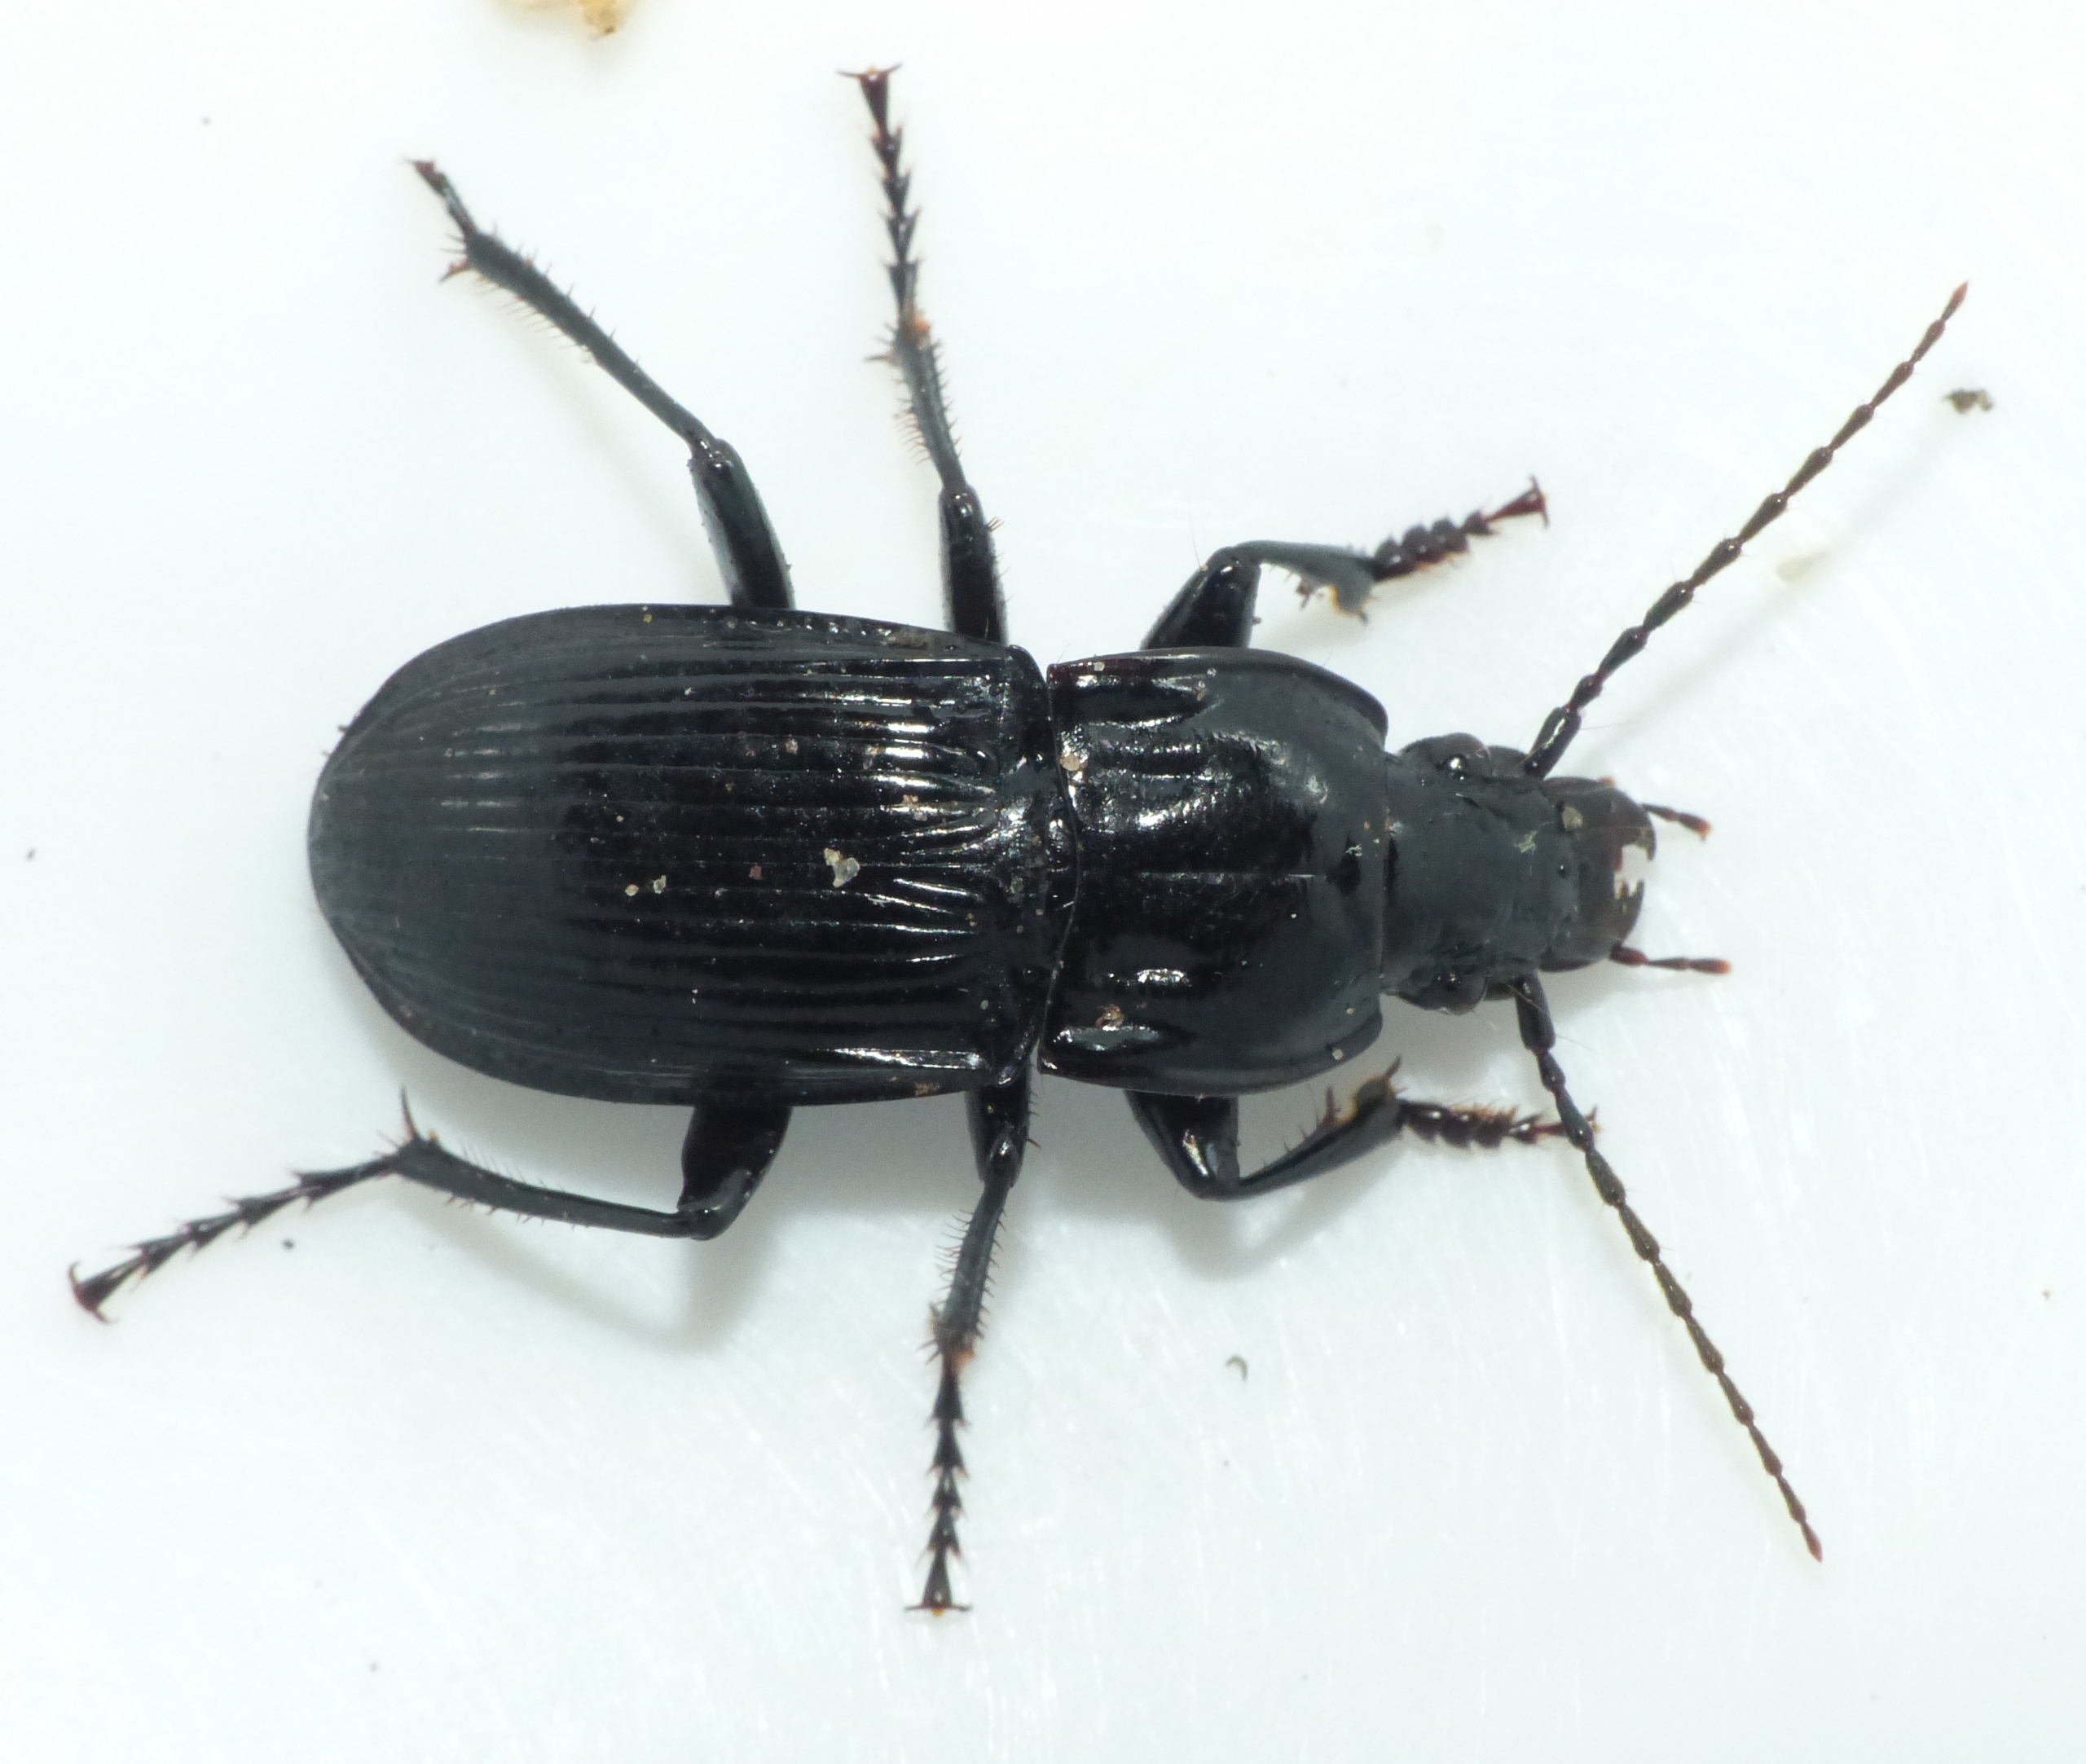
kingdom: Animalia
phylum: Arthropoda
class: Insecta
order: Coleoptera
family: Carabidae
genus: Abax
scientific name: Abax parallelepipedus
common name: Bred muldløber
